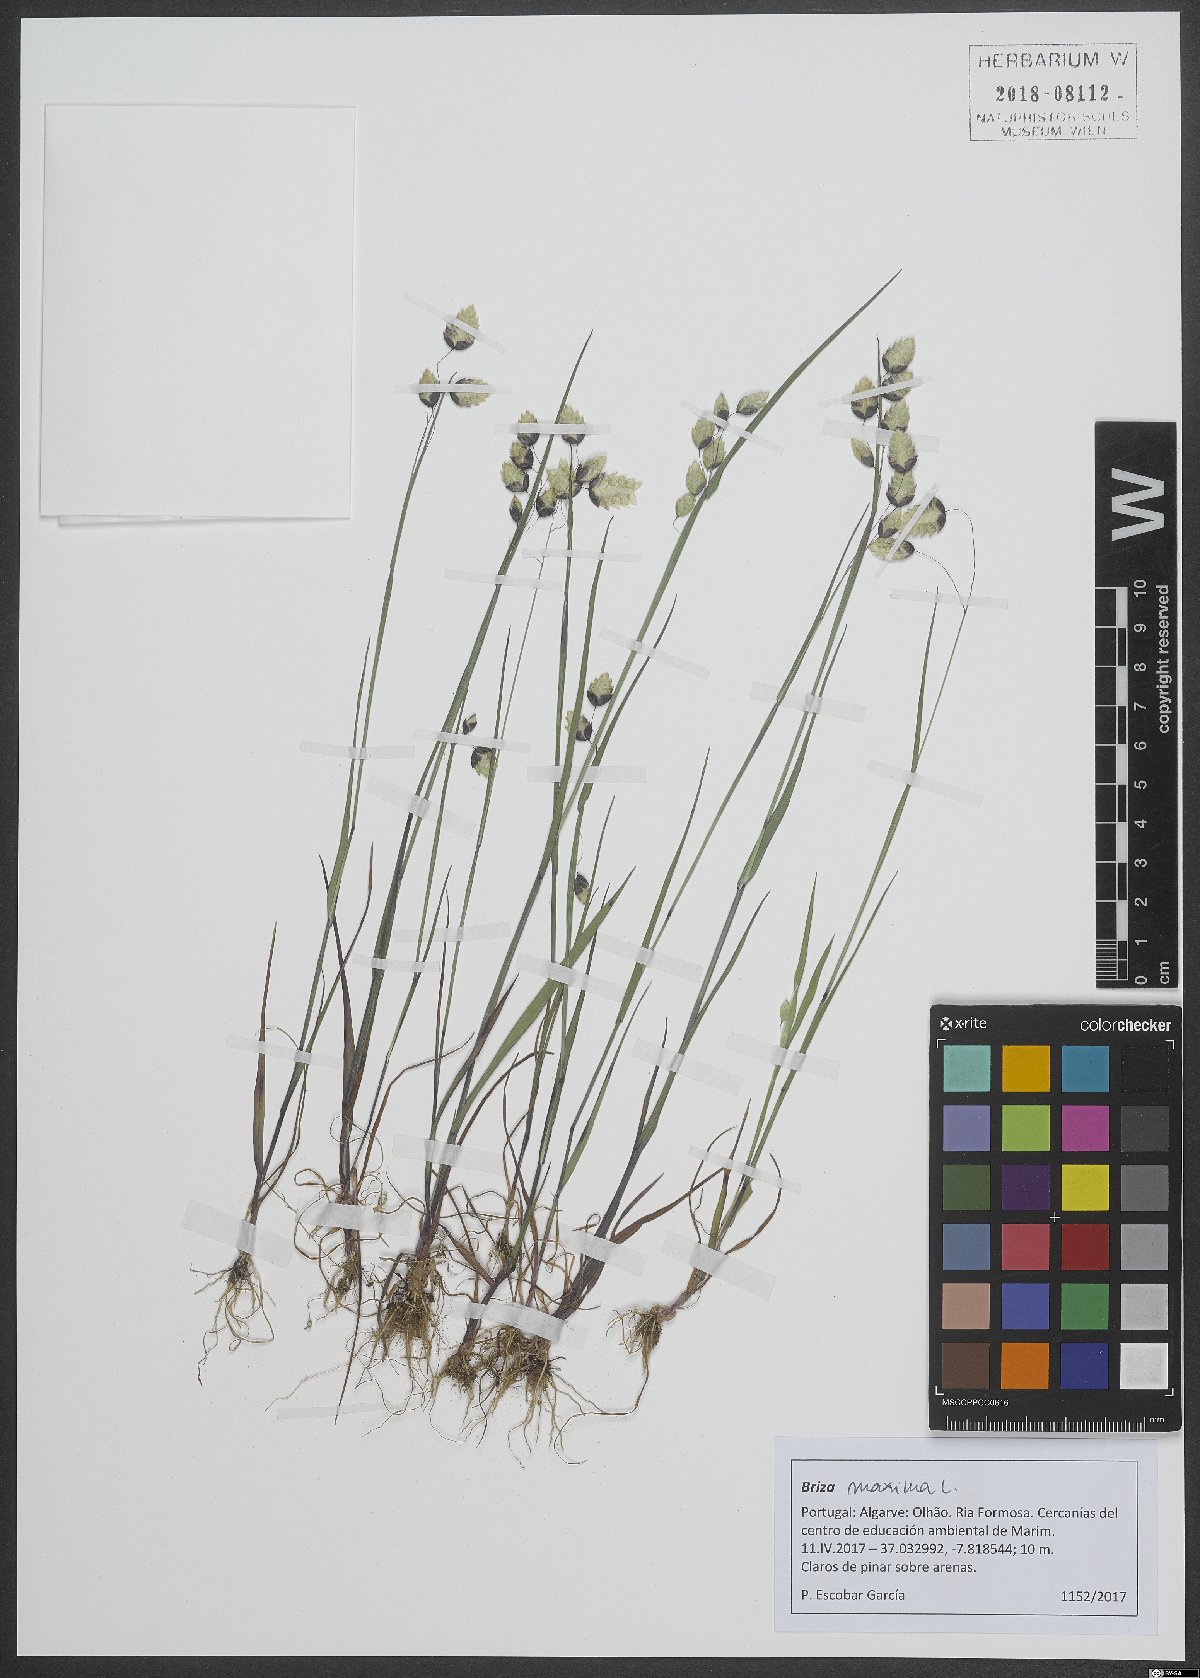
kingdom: Plantae
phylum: Tracheophyta
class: Liliopsida
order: Poales
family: Poaceae
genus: Briza
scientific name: Briza maxima
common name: Big quakinggrass
